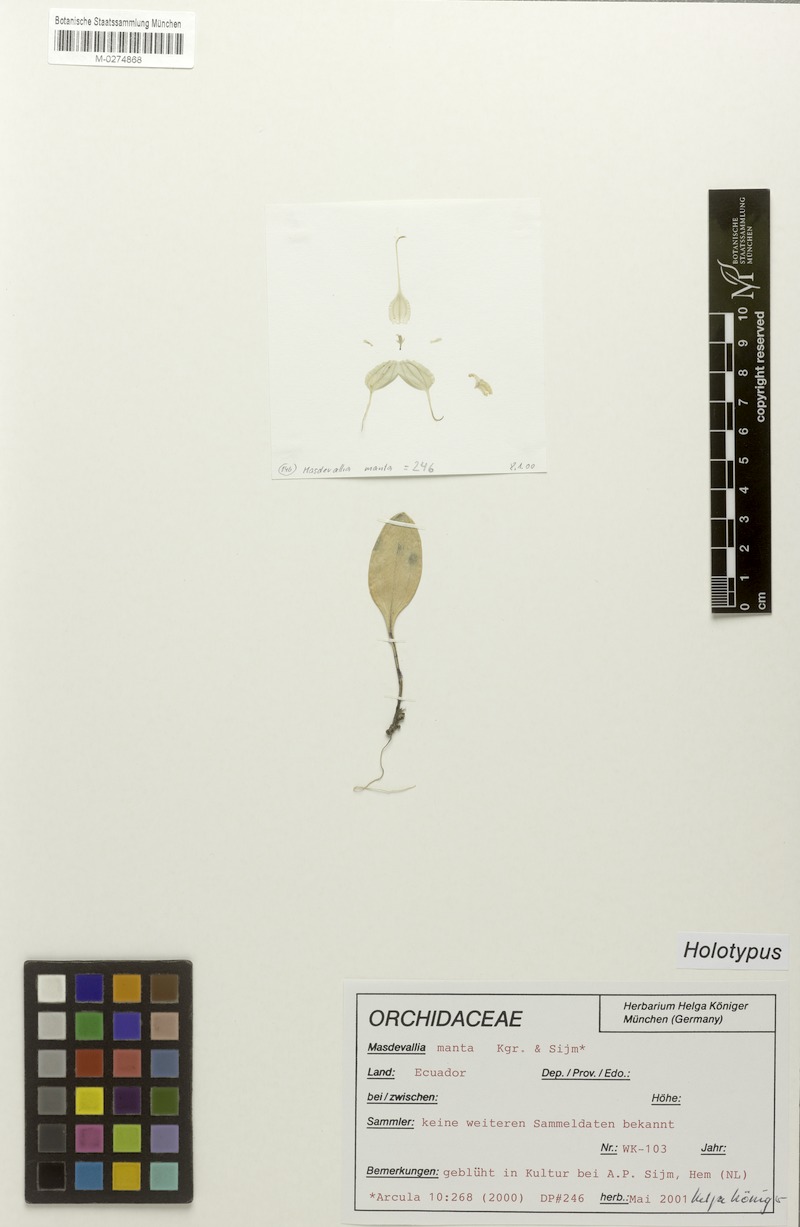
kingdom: Plantae
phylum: Tracheophyta
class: Liliopsida
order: Asparagales
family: Orchidaceae
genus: Masdevallia
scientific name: Masdevallia manta
